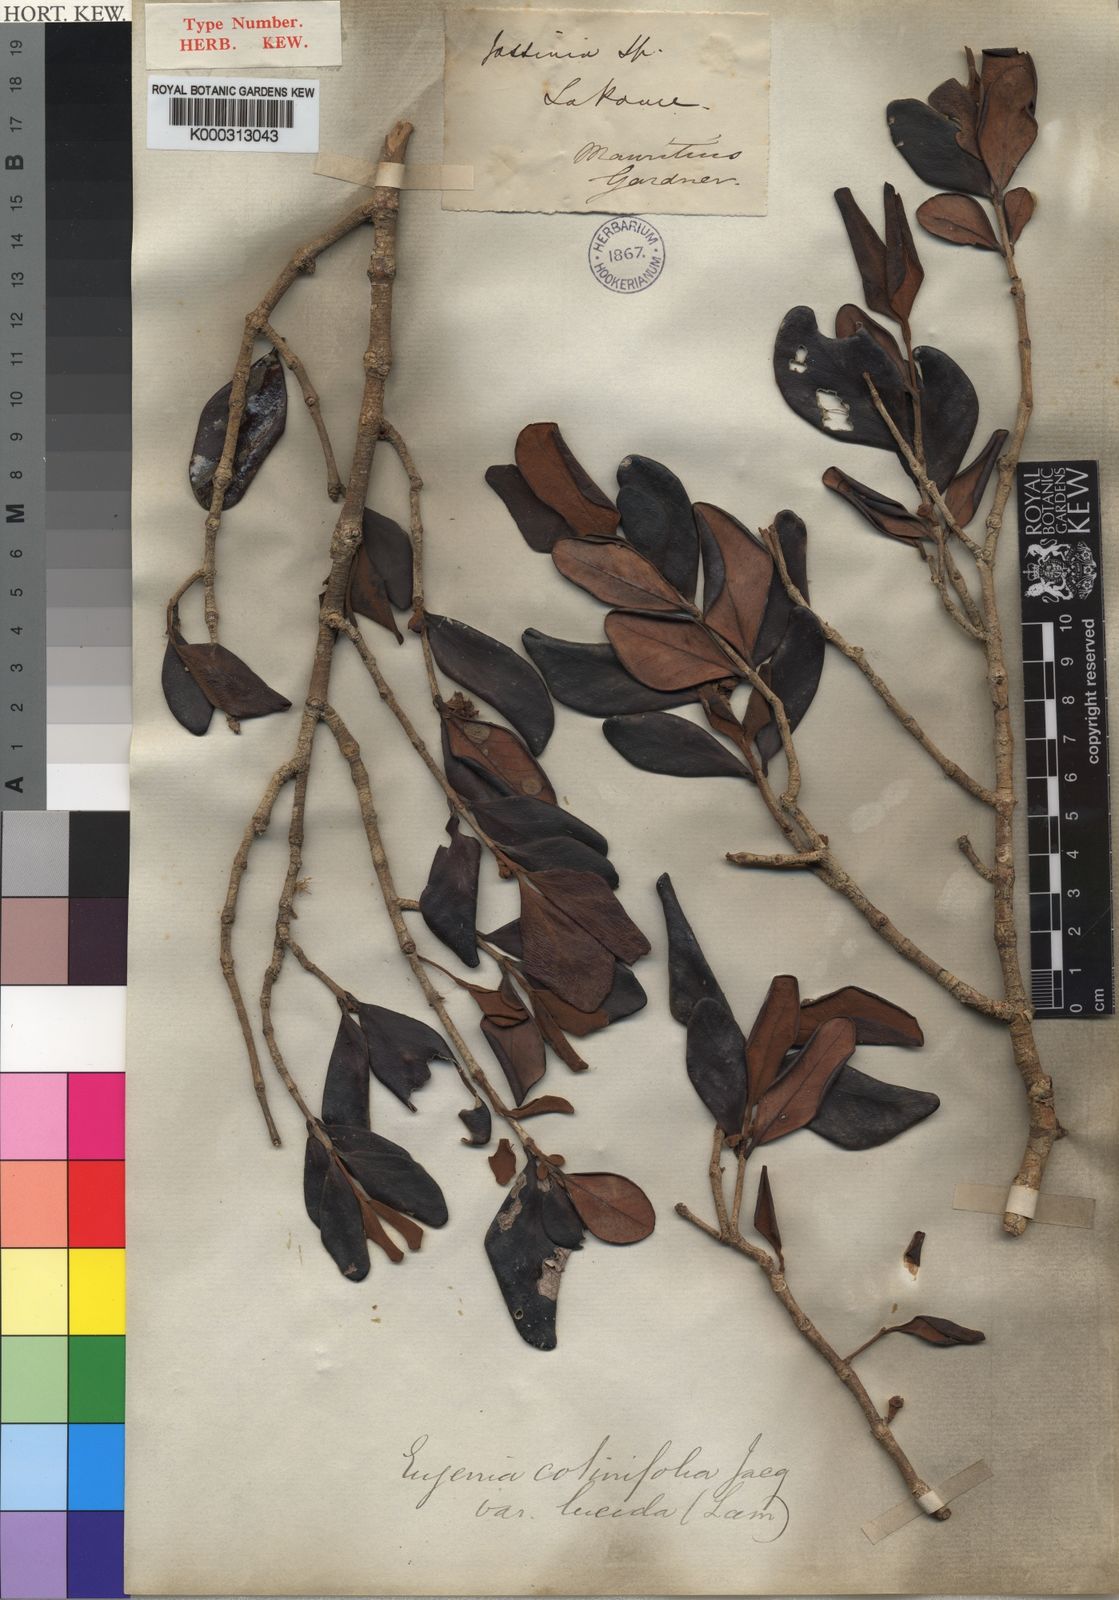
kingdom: Plantae
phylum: Tracheophyta
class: Magnoliopsida
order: Myrtales
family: Myrtaceae
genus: Eugenia
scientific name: Eugenia sieberi
